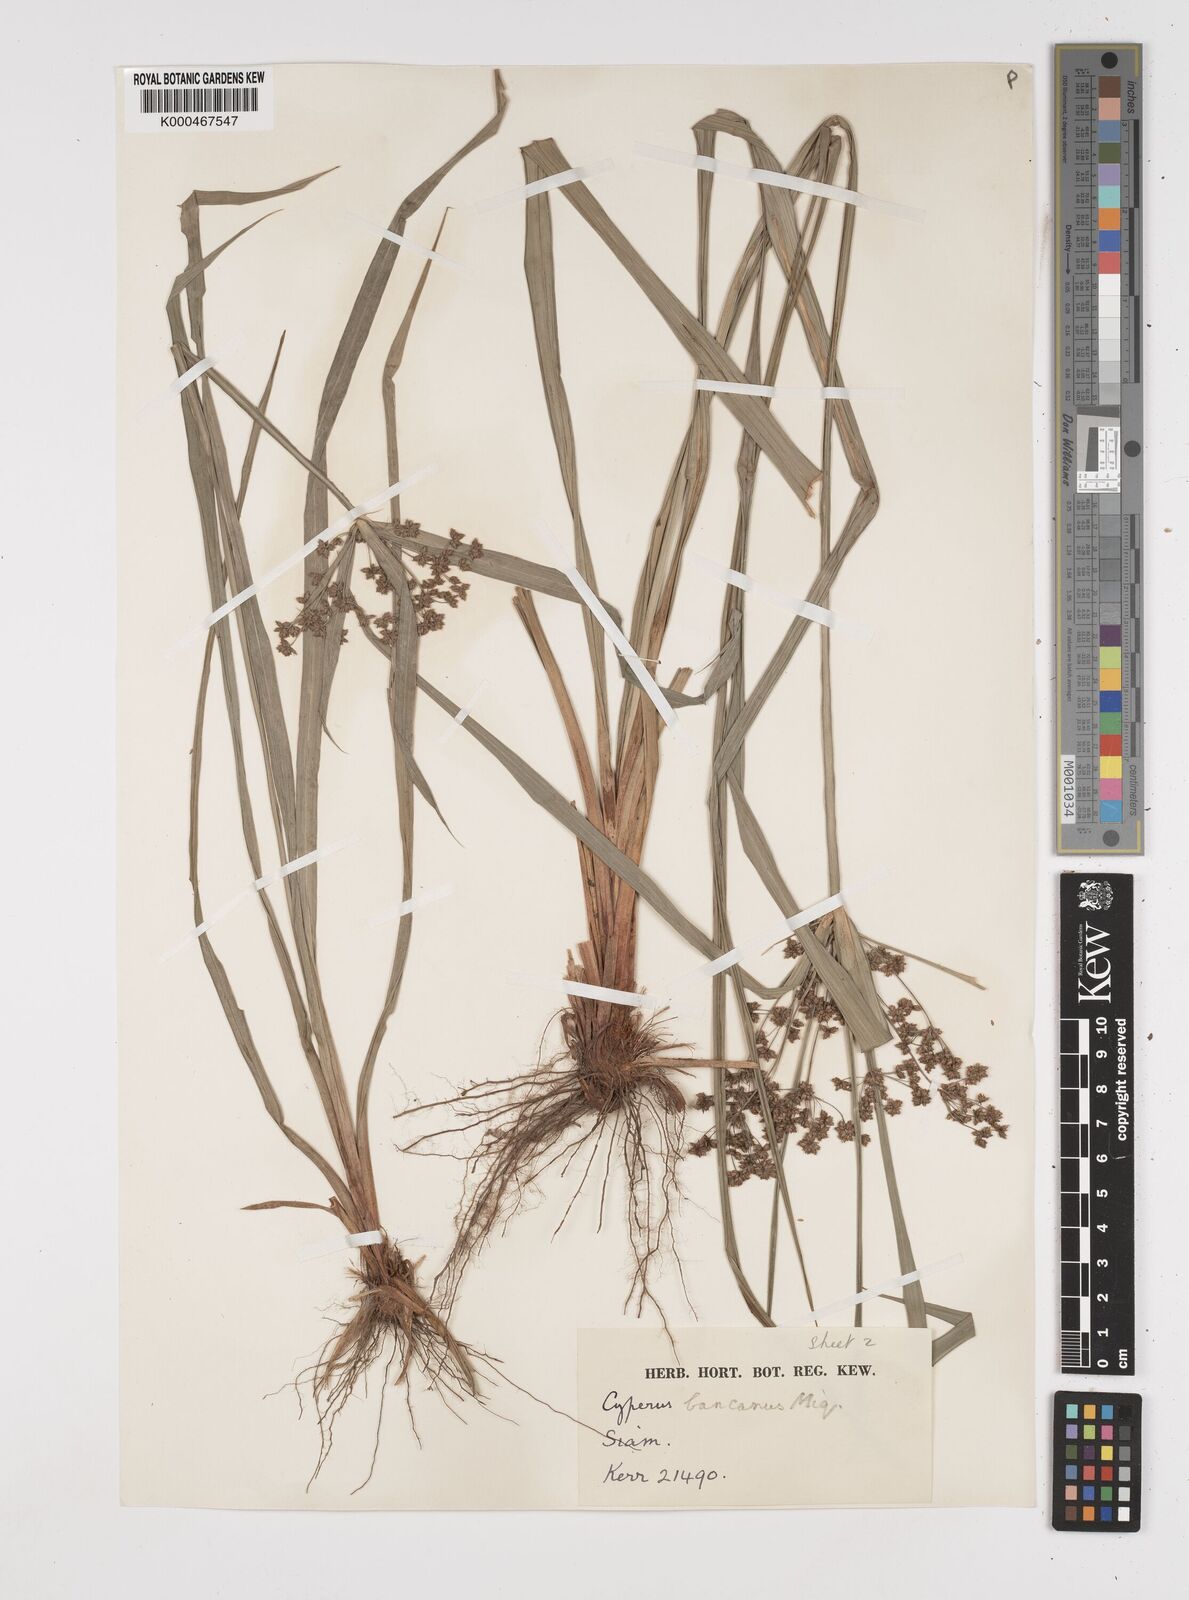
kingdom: Plantae
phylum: Tracheophyta
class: Liliopsida
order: Poales
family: Cyperaceae
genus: Cyperus
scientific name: Cyperus trialatus
